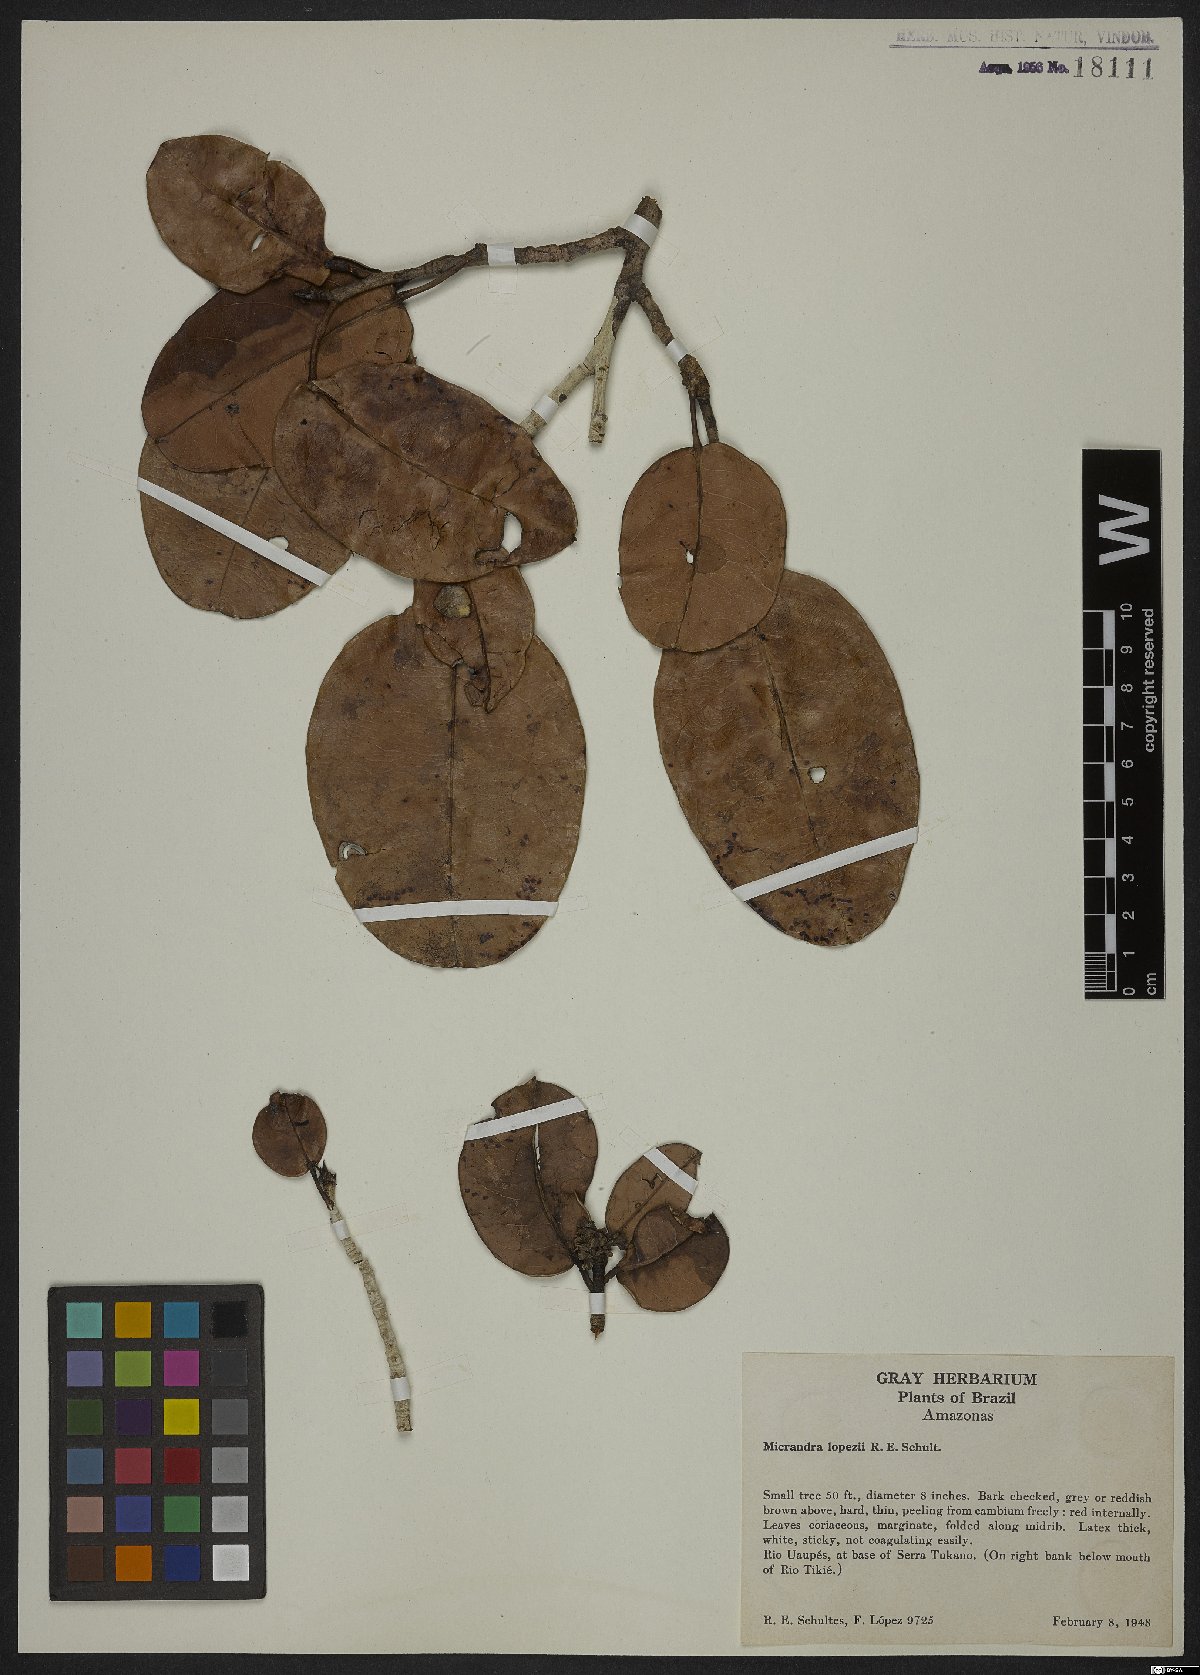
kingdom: Plantae
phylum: Tracheophyta
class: Magnoliopsida
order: Malpighiales
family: Euphorbiaceae
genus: Micrandra
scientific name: Micrandra lopezii
